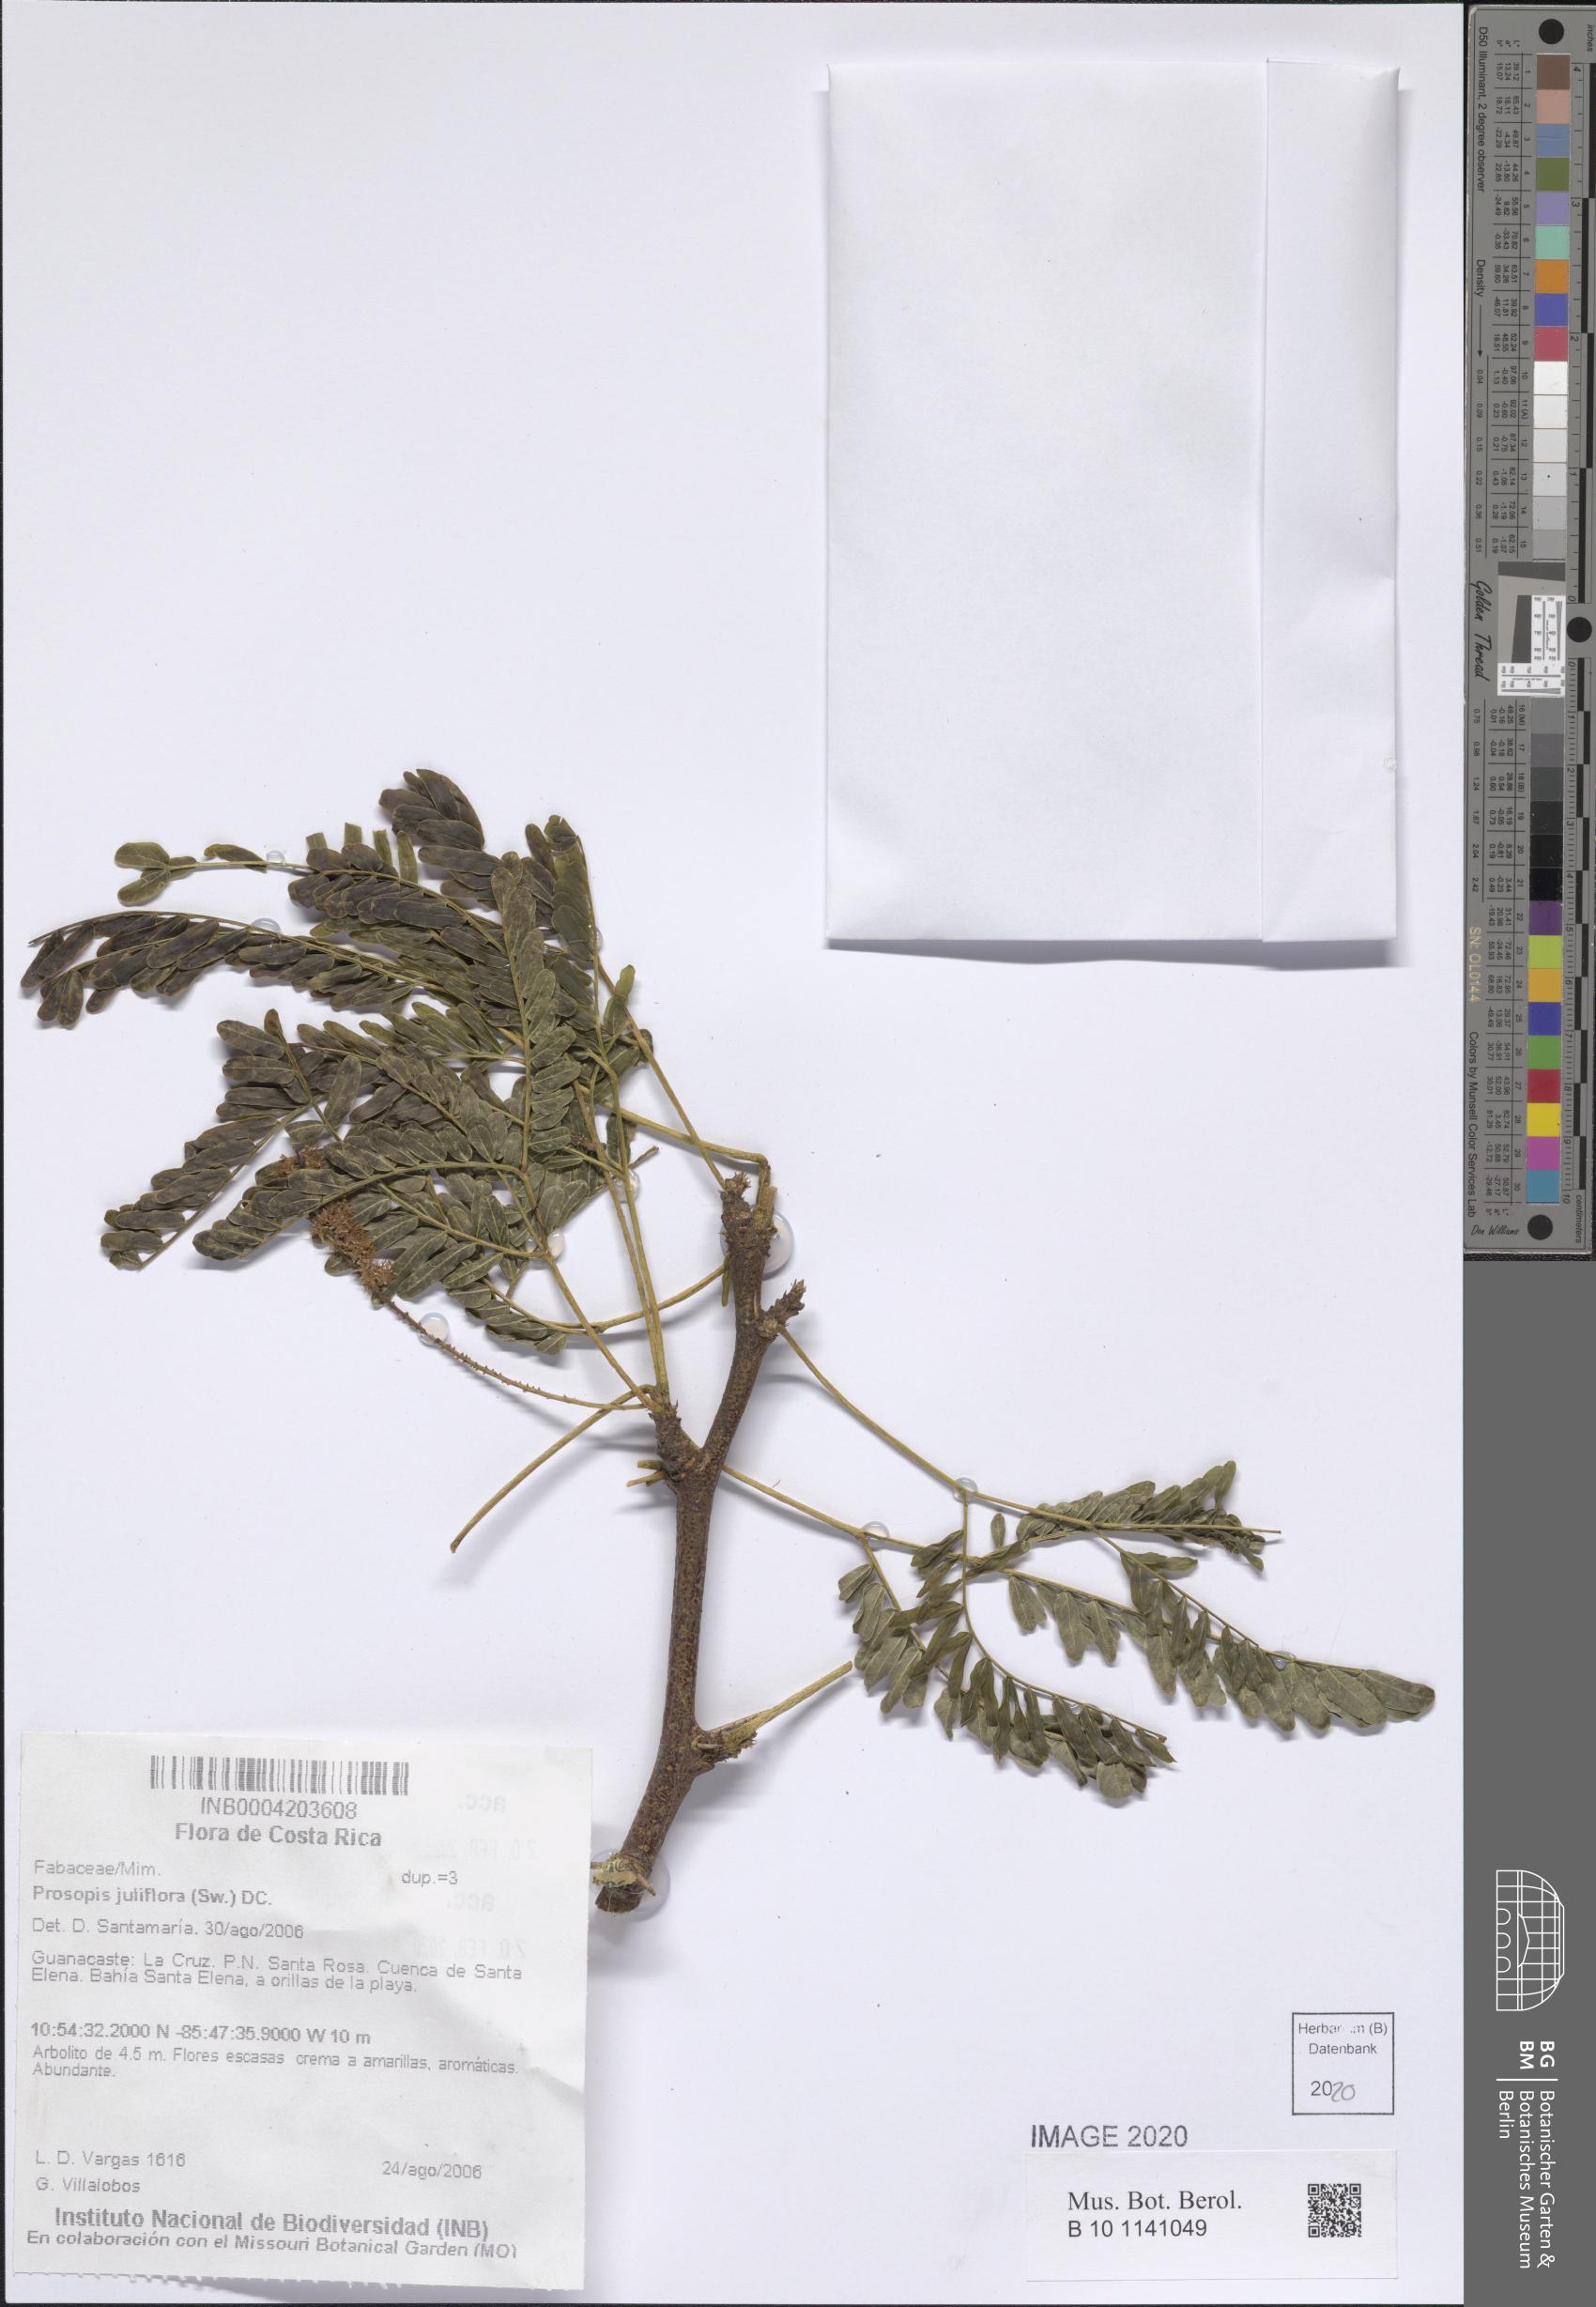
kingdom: Plantae
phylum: Tracheophyta
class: Magnoliopsida
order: Fabales
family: Fabaceae
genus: Prosopis
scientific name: Prosopis juliflora
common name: Mesquite
